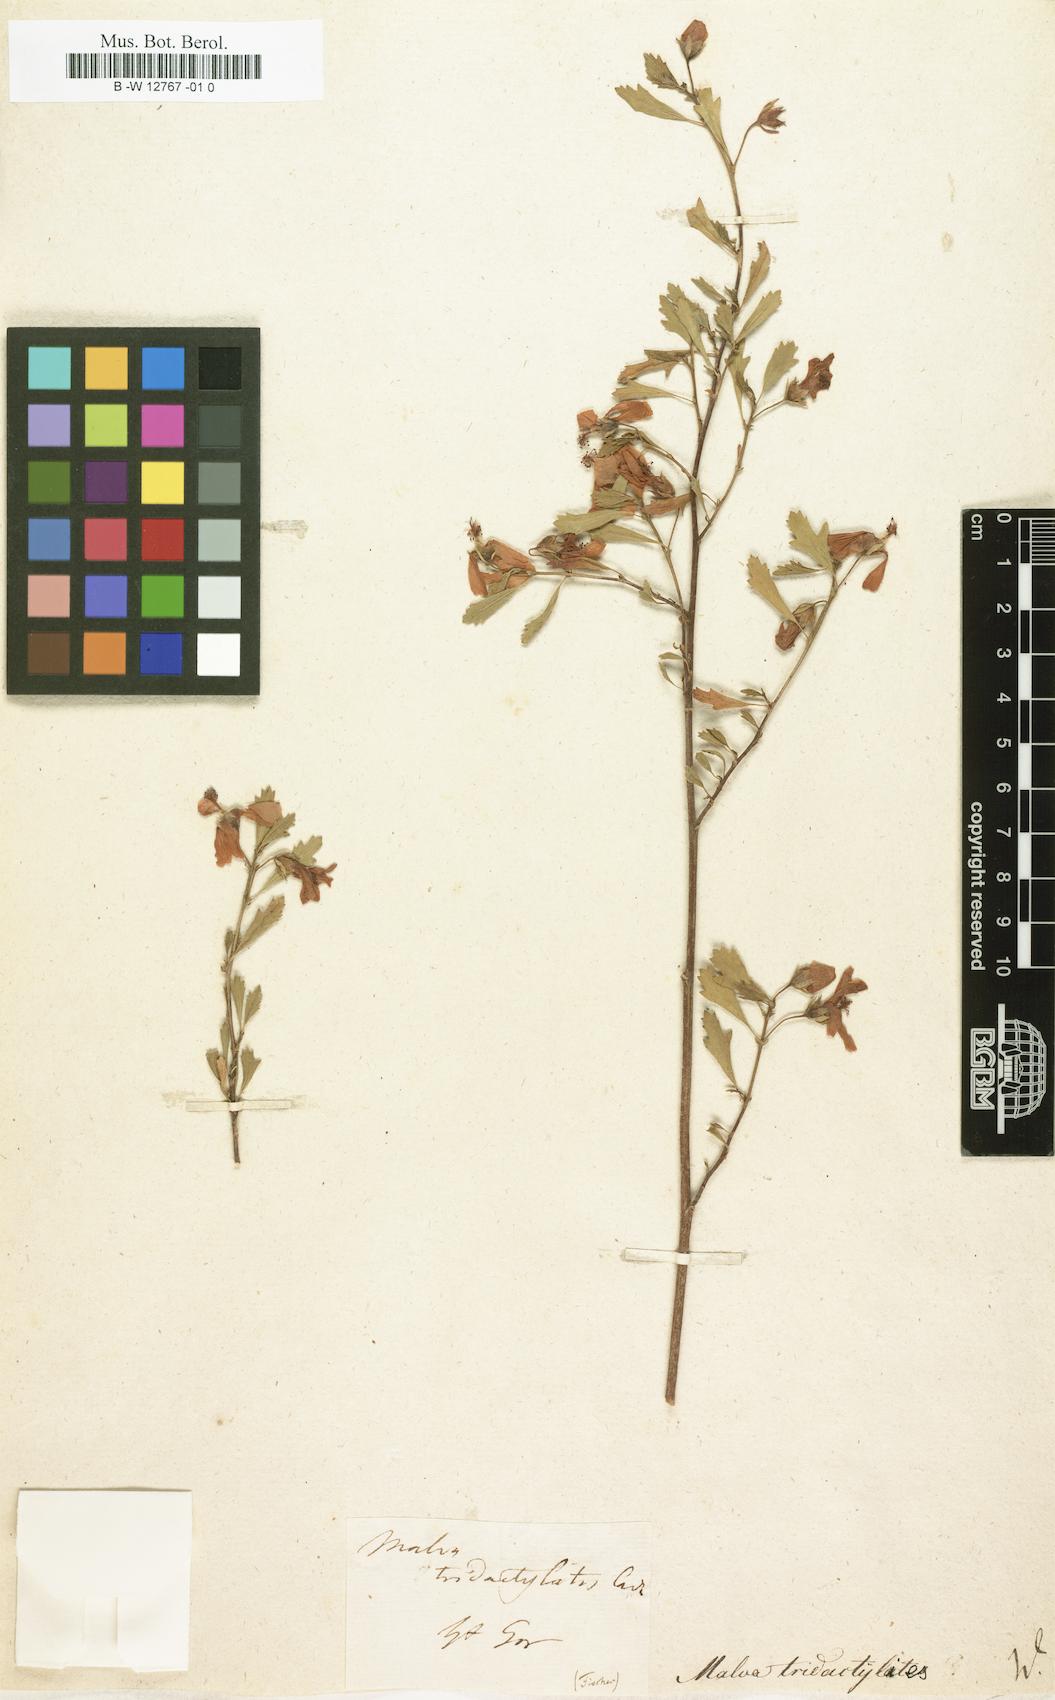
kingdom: Plantae
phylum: Tracheophyta
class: Magnoliopsida
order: Malvales
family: Malvaceae
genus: Anisodontea
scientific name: Anisodontea fruticosa
